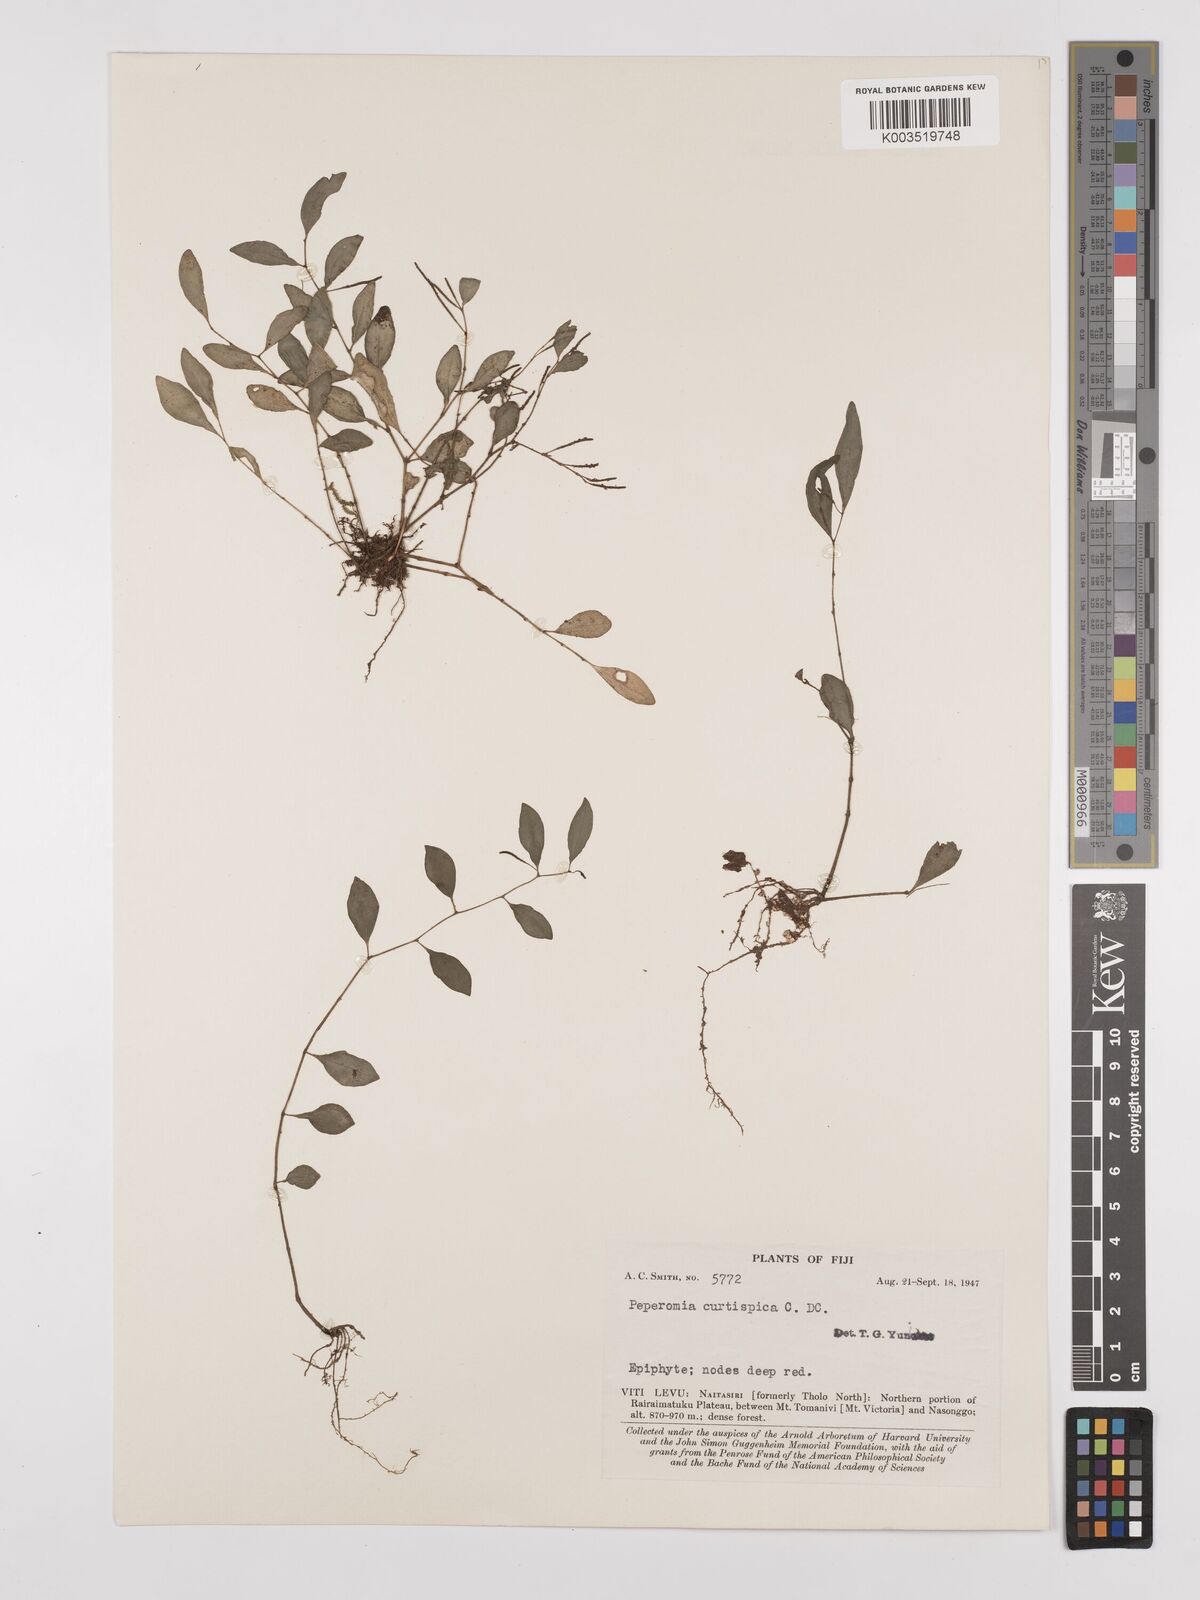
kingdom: Plantae
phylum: Tracheophyta
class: Magnoliopsida
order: Piperales
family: Piperaceae
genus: Peperomia
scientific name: Peperomia curtispica
